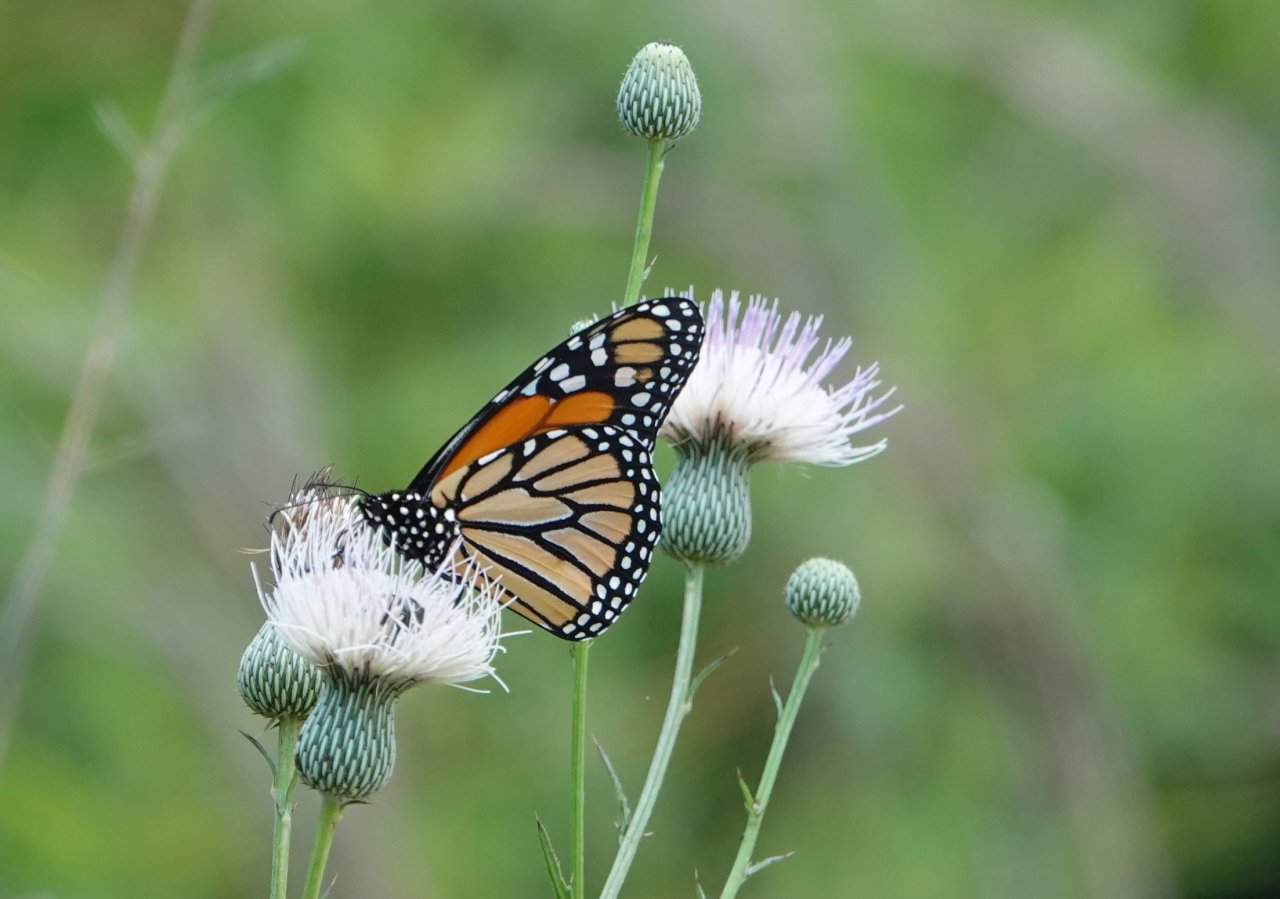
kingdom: Animalia
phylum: Arthropoda
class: Insecta
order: Lepidoptera
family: Nymphalidae
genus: Danaus
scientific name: Danaus plexippus
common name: Monarch
